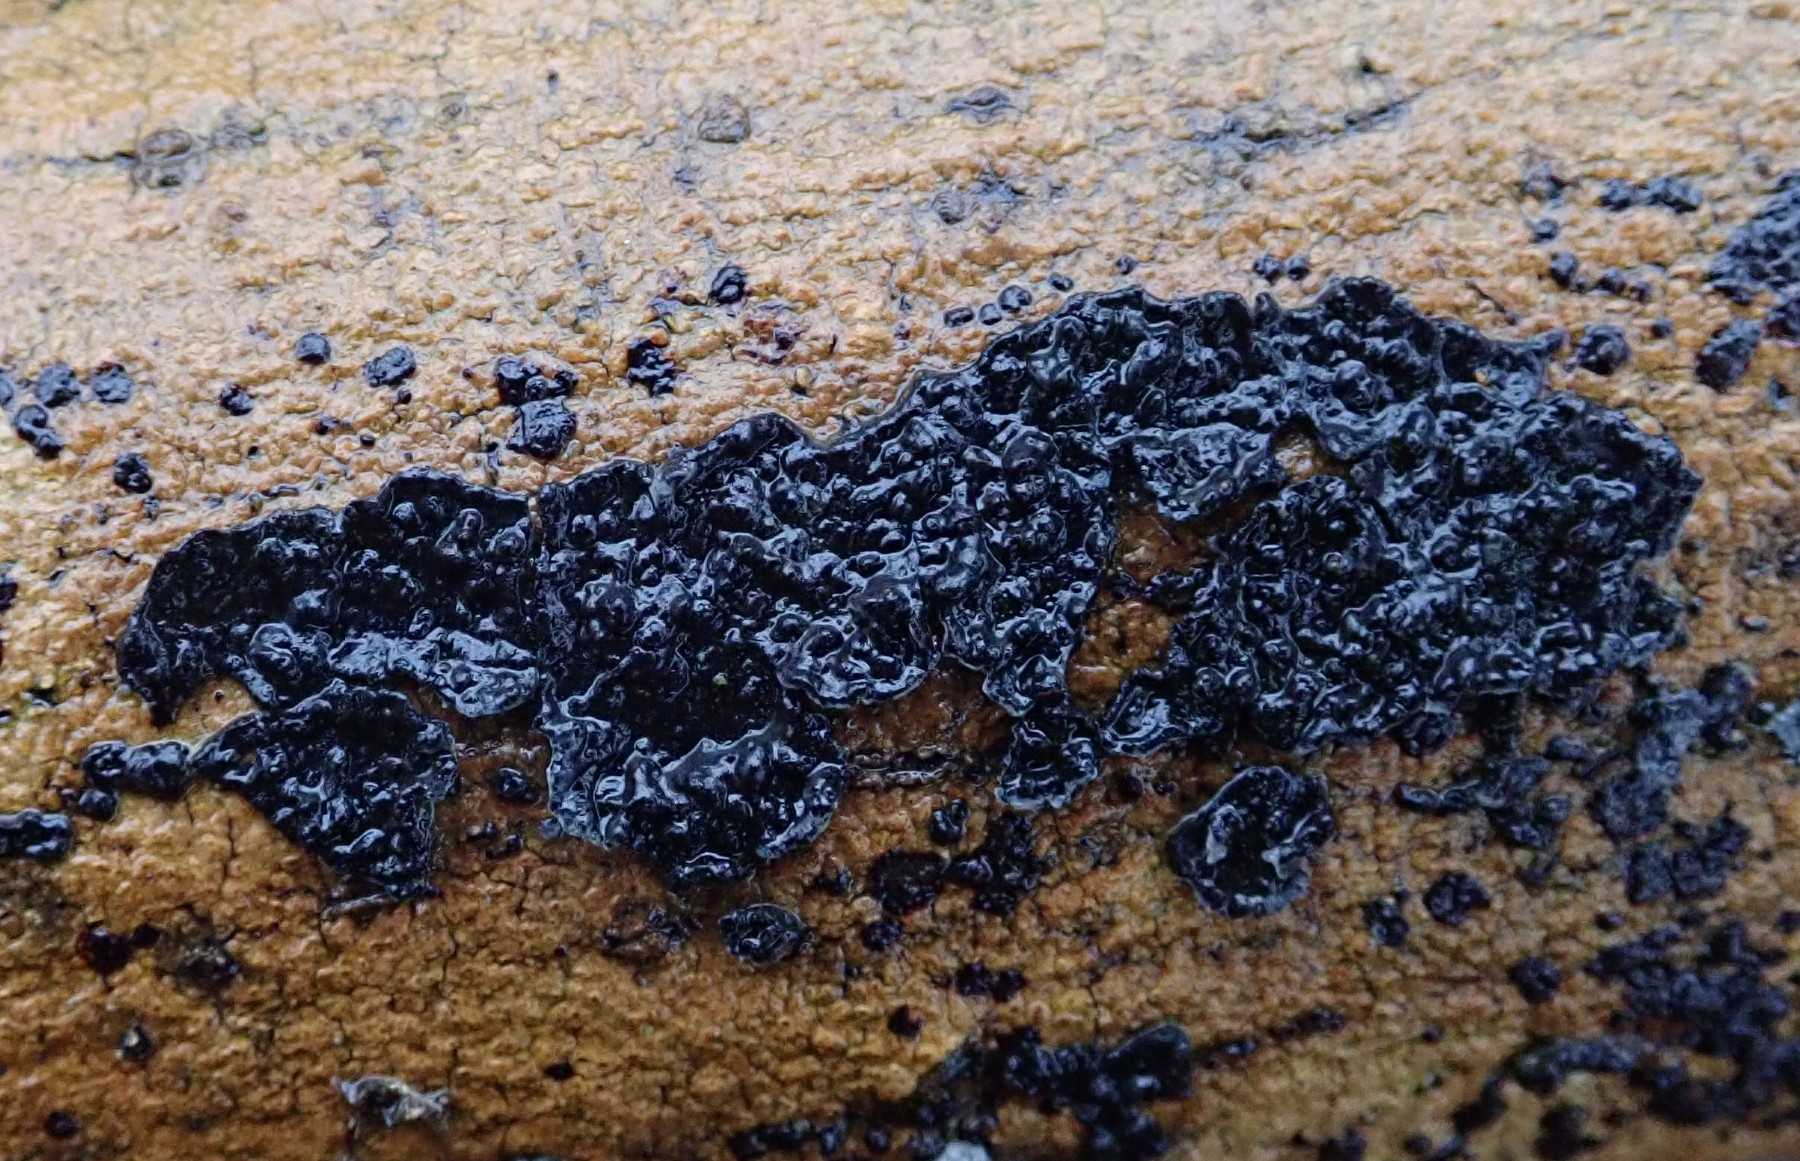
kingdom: Fungi
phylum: Basidiomycota
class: Agaricomycetes
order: Auriculariales
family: Auriculariaceae
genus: Exidia
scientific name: Exidia nigricans
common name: almindelig bævretop
